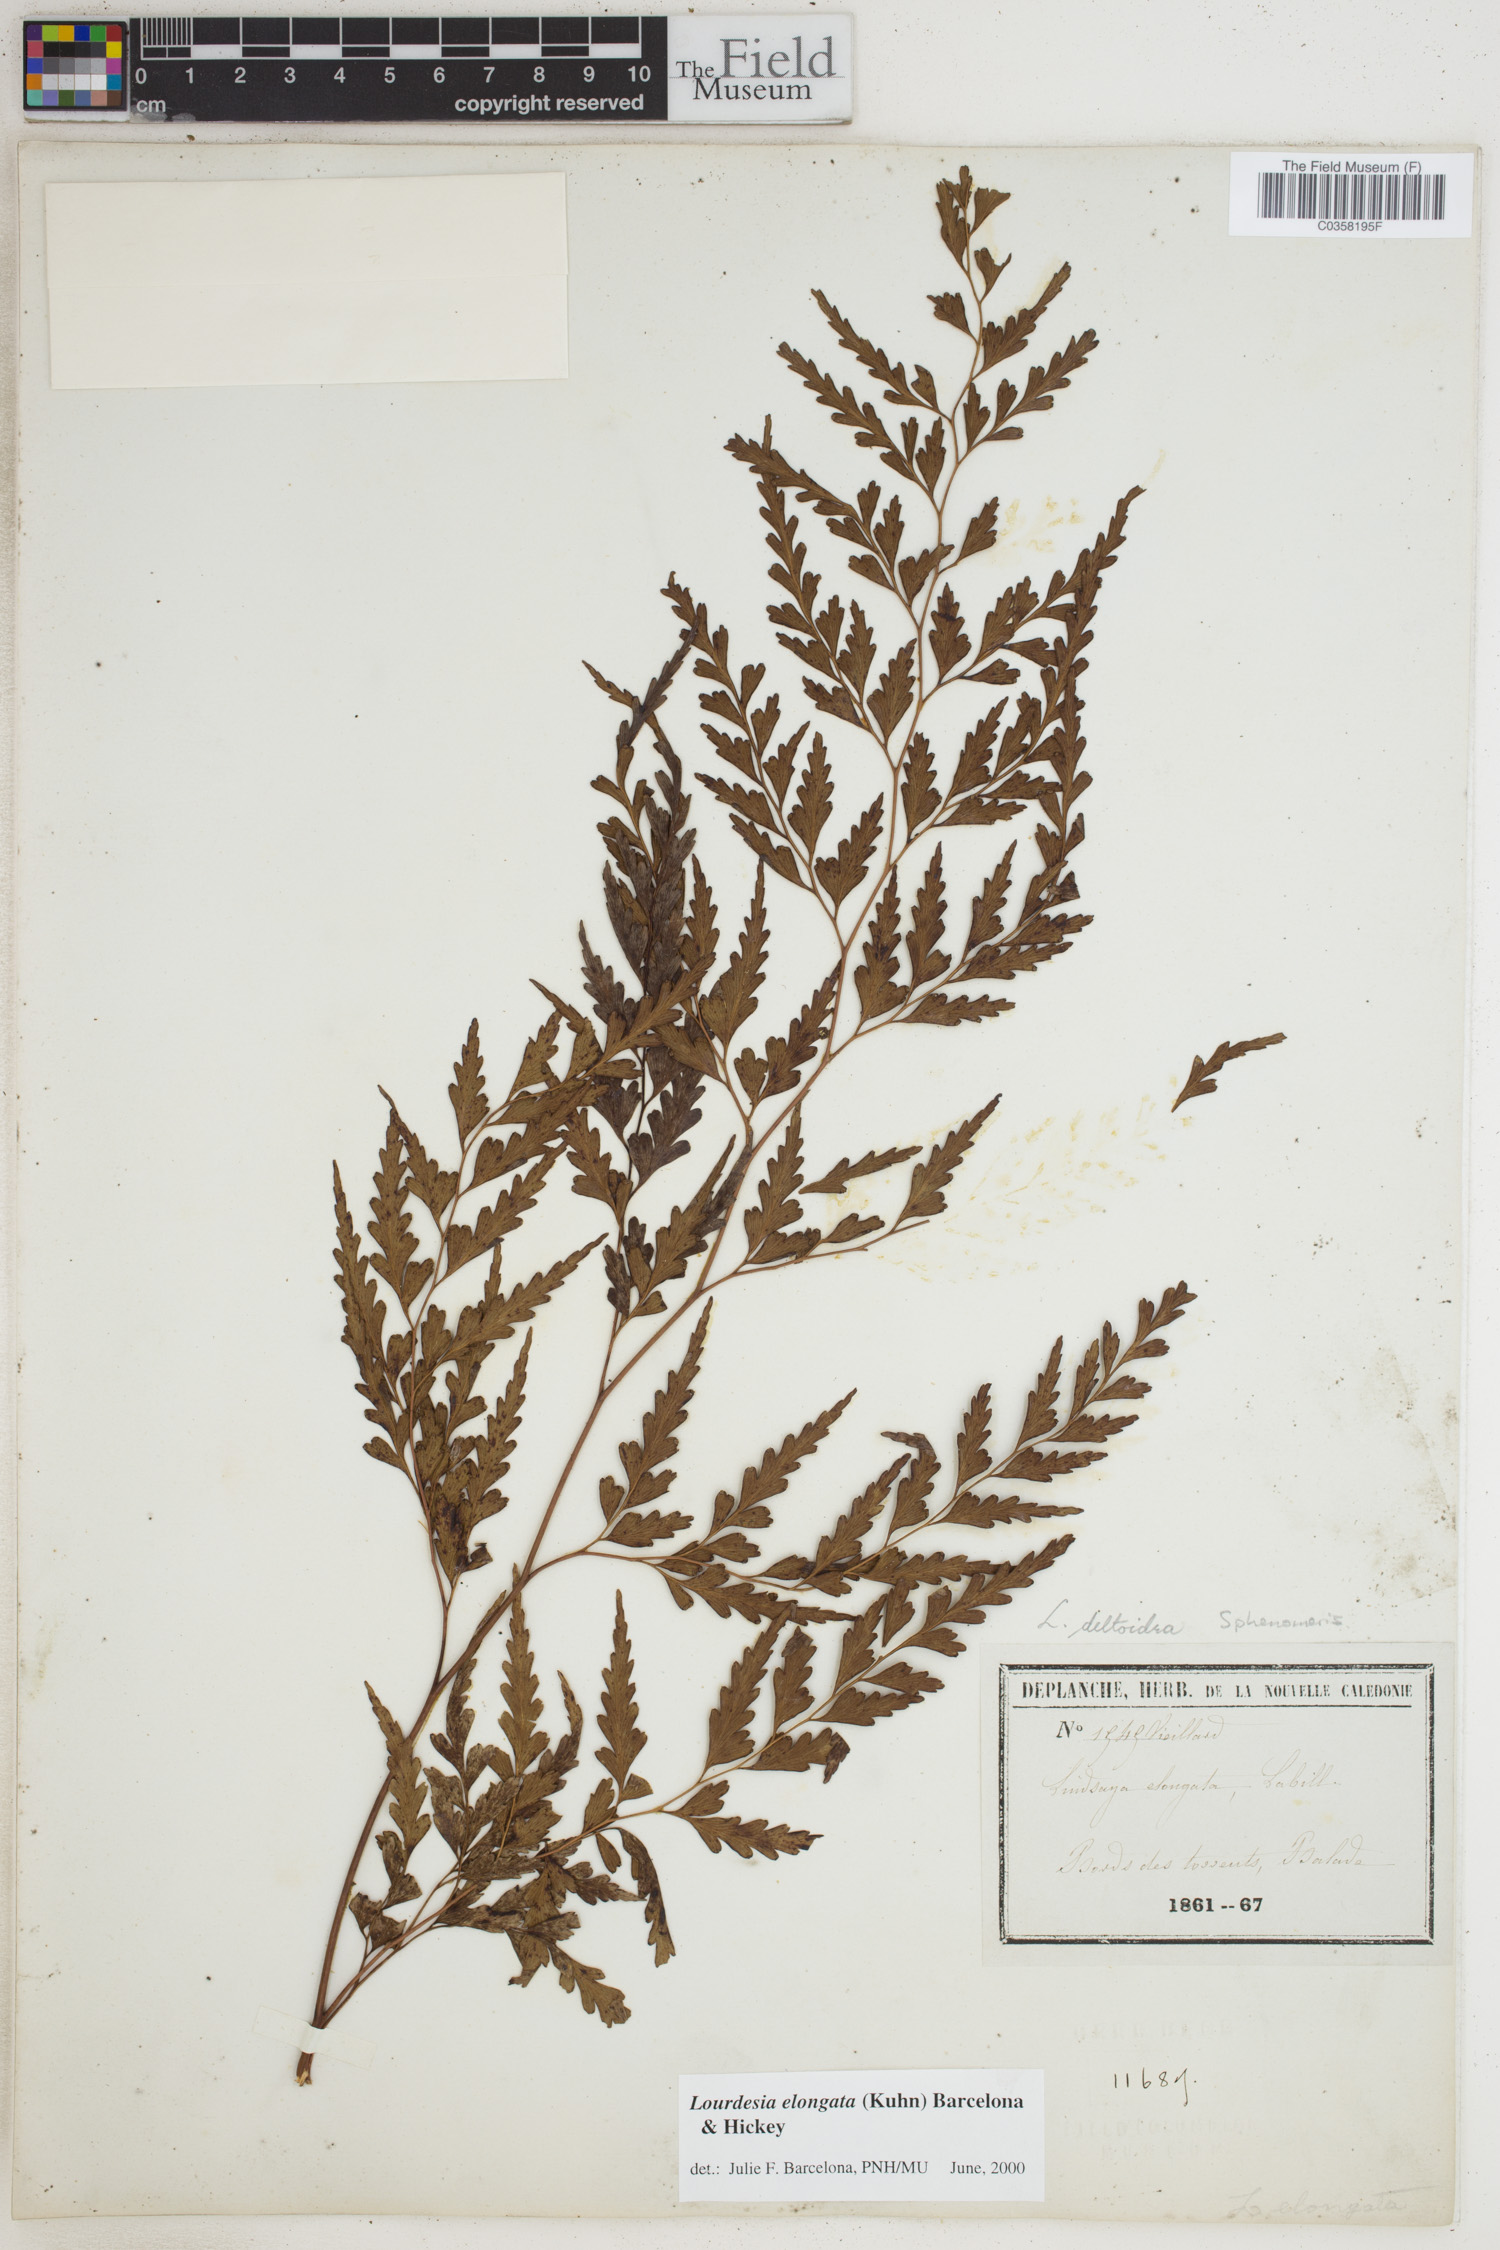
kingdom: Plantae
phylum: Tracheophyta
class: Polypodiopsida
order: Polypodiales
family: Lindsaeaceae
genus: Odontosoria
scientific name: Odontosoria deltoidea
